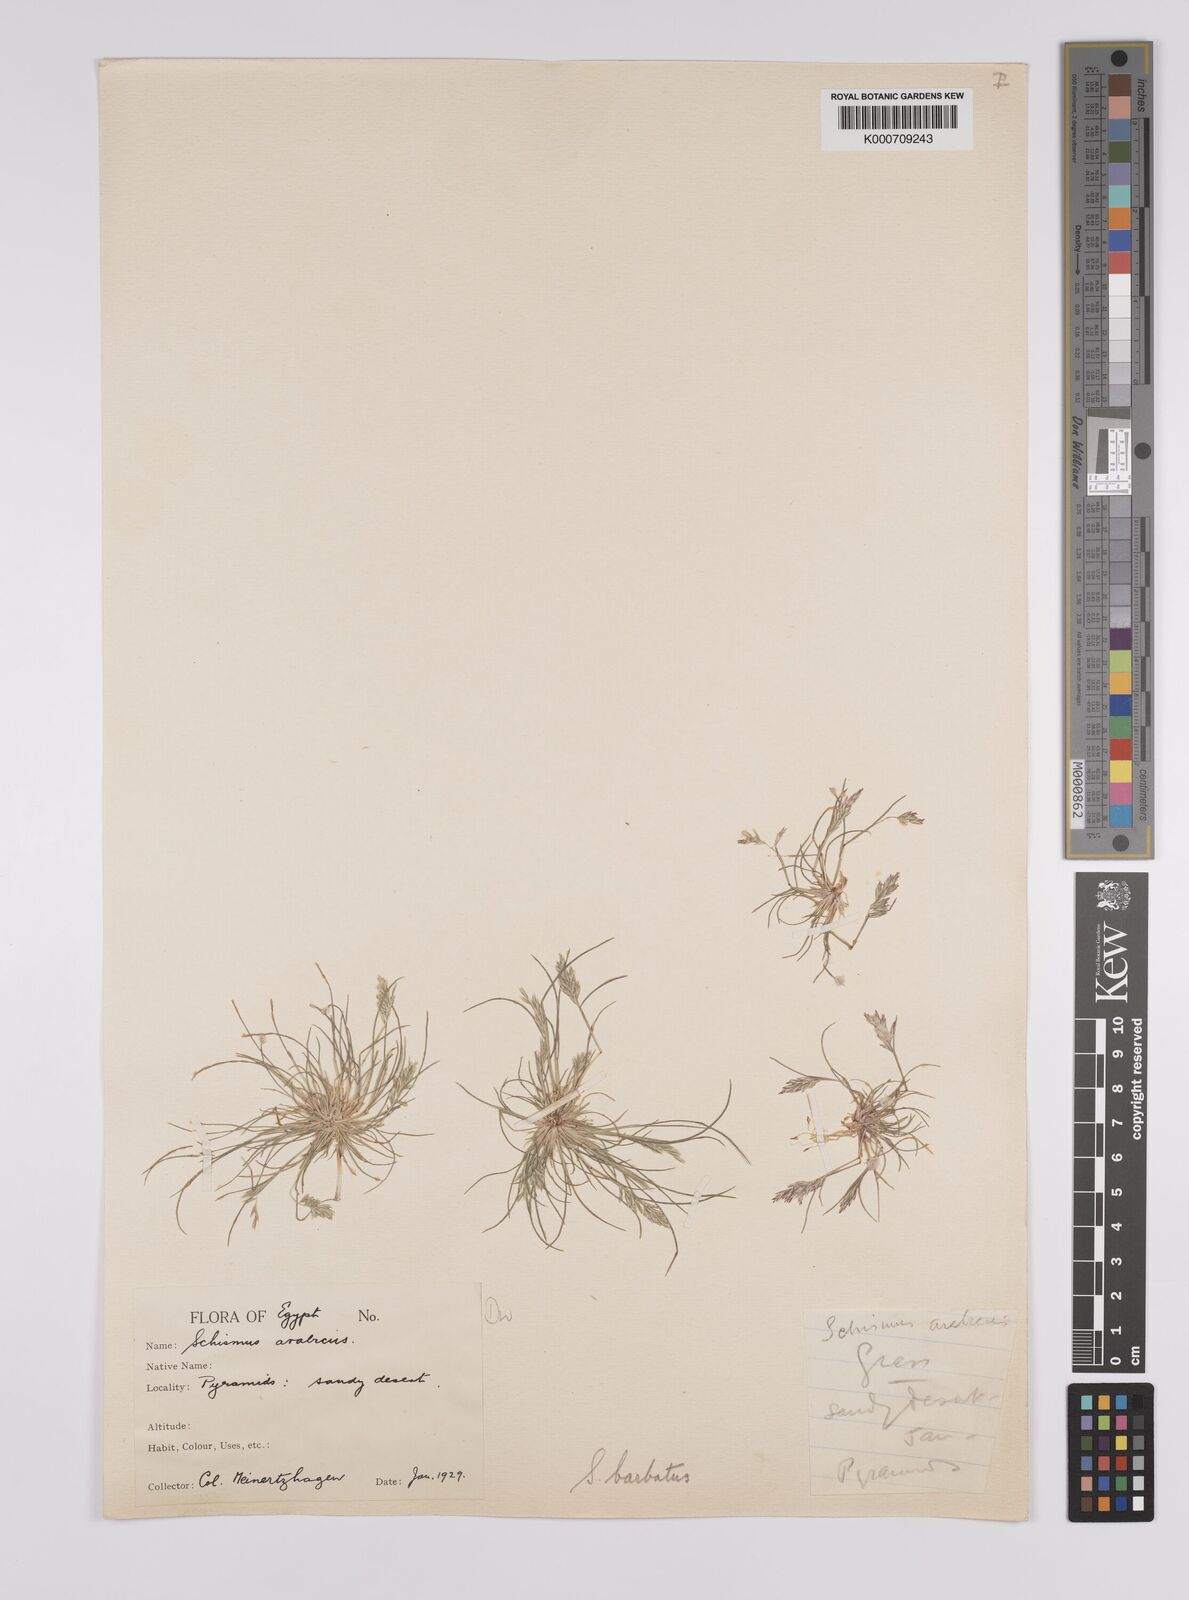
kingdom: Plantae
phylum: Tracheophyta
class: Liliopsida
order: Poales
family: Poaceae
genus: Schismus
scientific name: Schismus barbatus
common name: Kelch-grass
